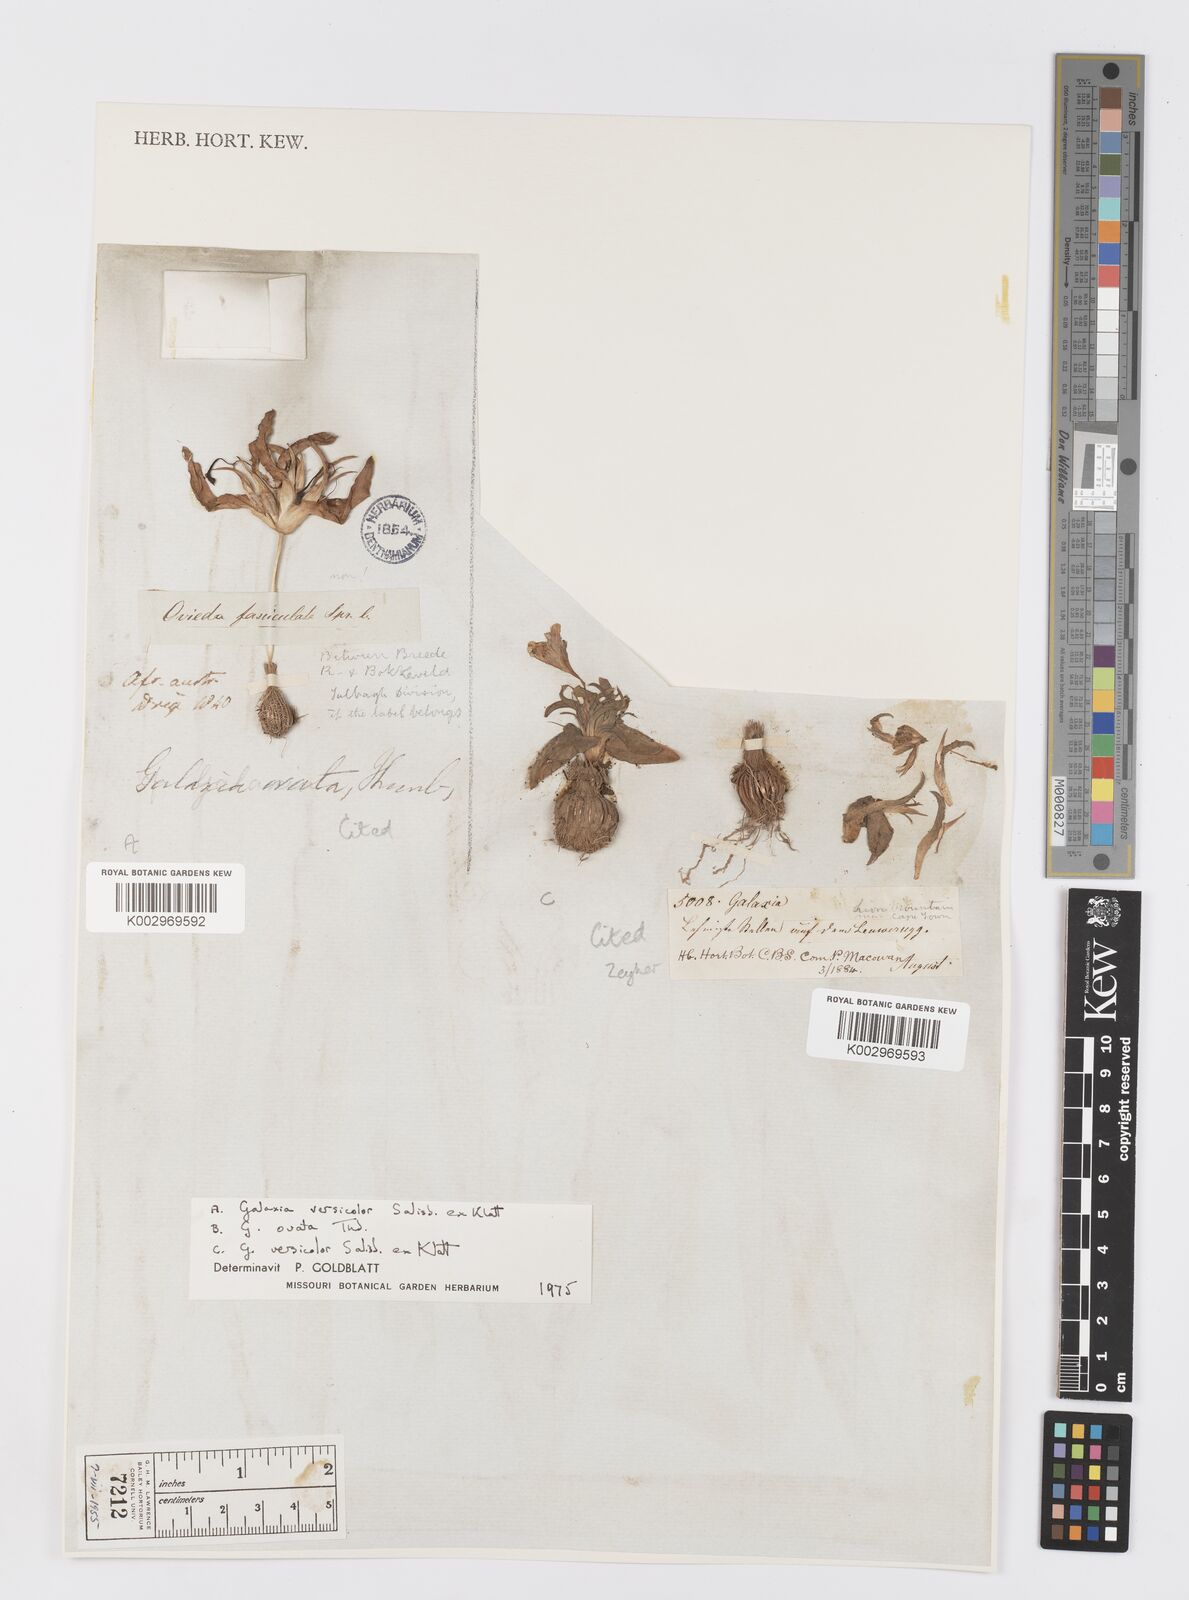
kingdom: Plantae
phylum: Tracheophyta
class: Liliopsida
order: Asparagales
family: Iridaceae
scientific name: Iridaceae
